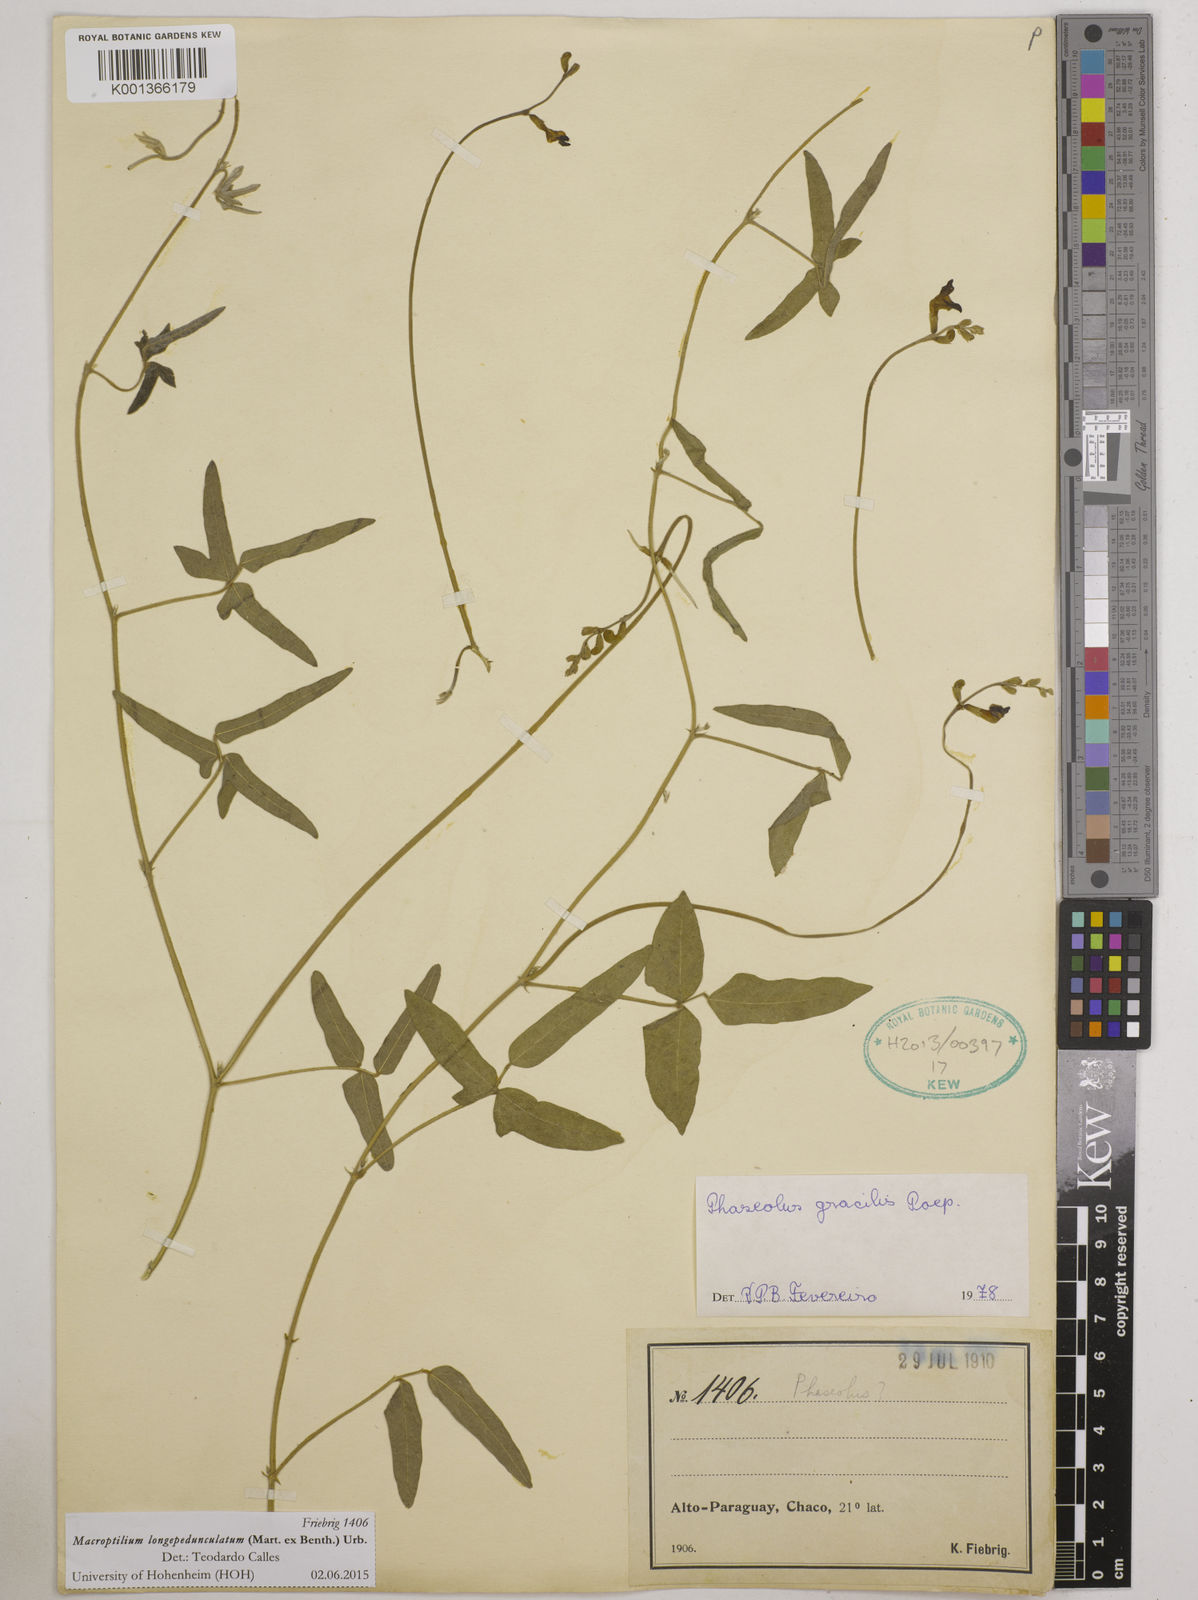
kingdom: Plantae
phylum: Tracheophyta
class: Magnoliopsida
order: Fabales
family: Fabaceae
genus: Macroptilium
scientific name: Macroptilium longepedunculatum
